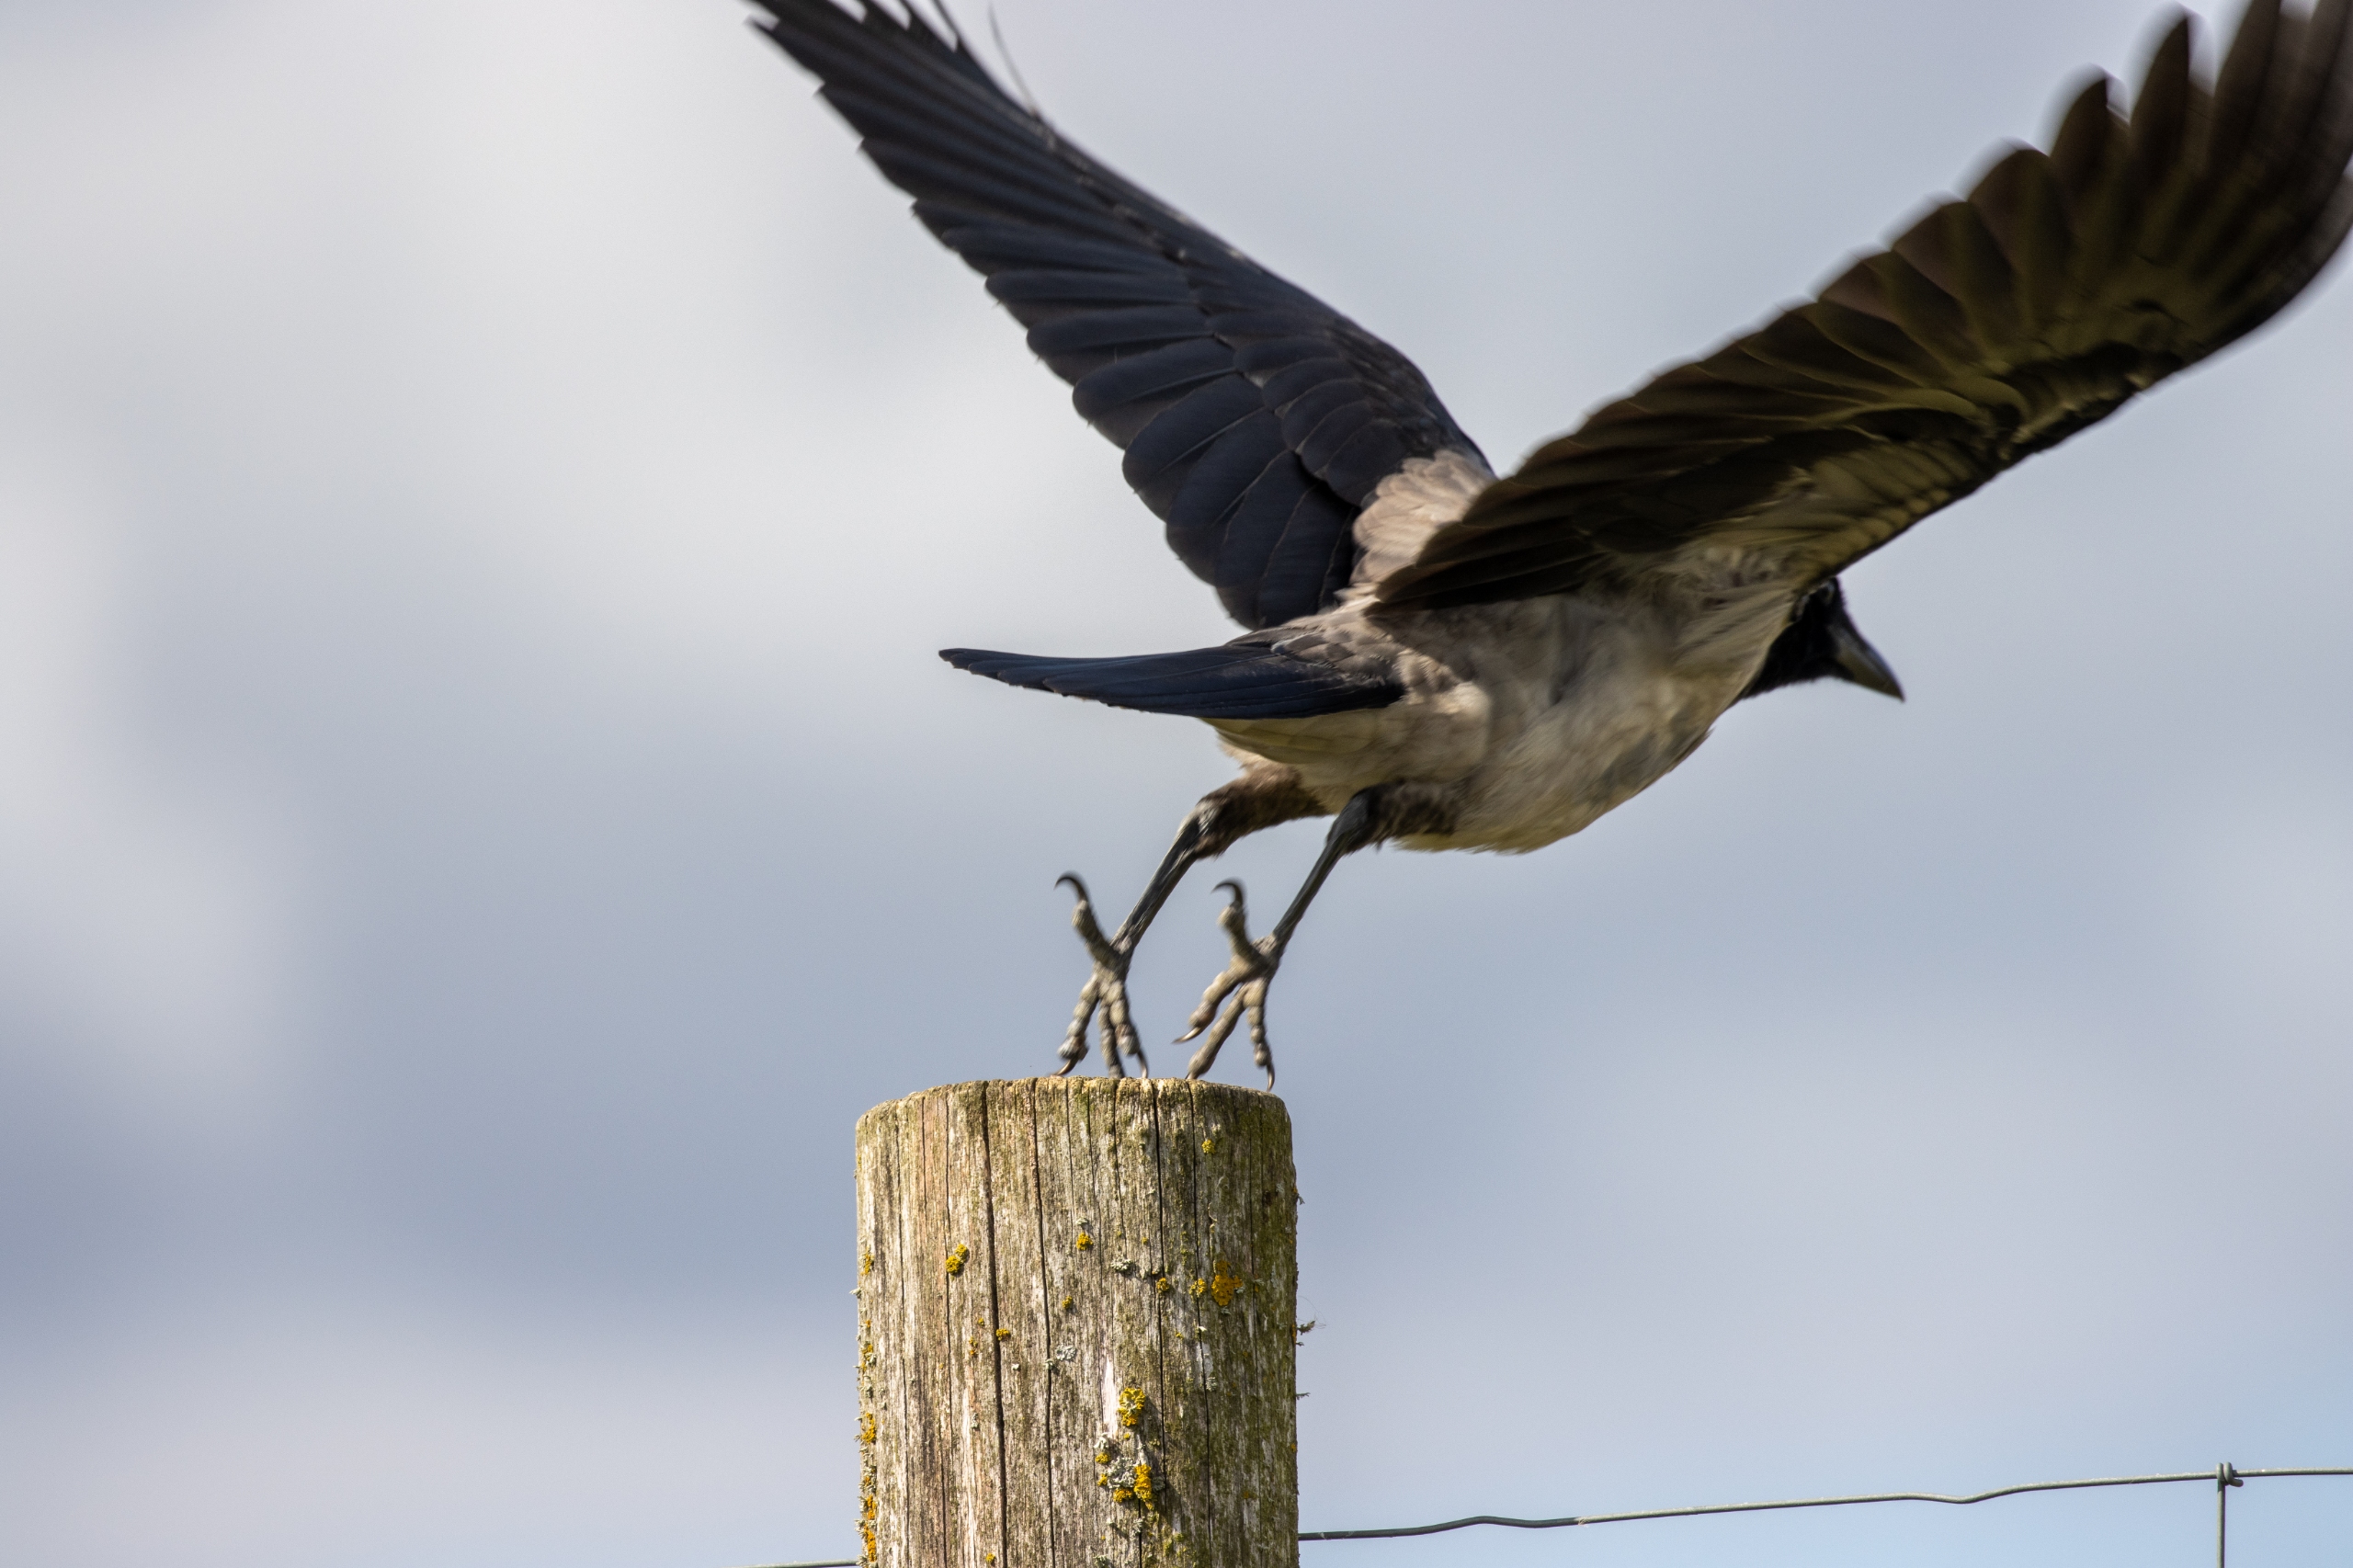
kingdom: Animalia
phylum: Chordata
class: Aves
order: Passeriformes
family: Corvidae
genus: Corvus
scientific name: Corvus cornix
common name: Gråkrage
